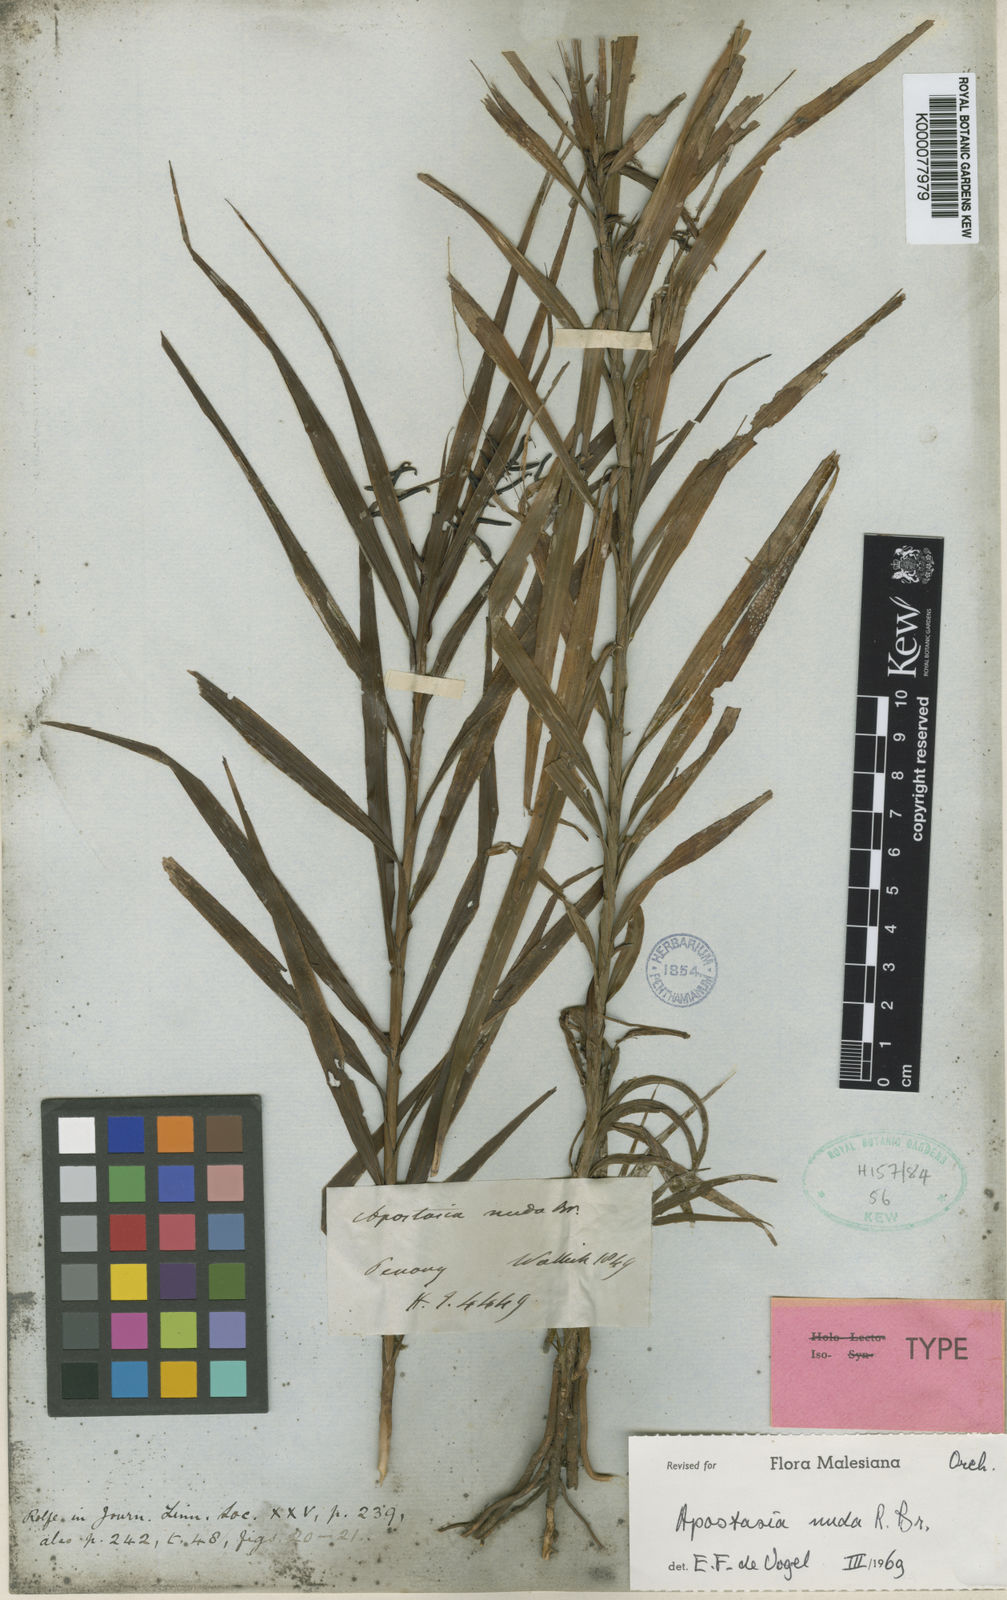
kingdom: Plantae
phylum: Tracheophyta
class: Liliopsida
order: Asparagales
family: Orchidaceae
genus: Apostasia
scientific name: Apostasia nuda
